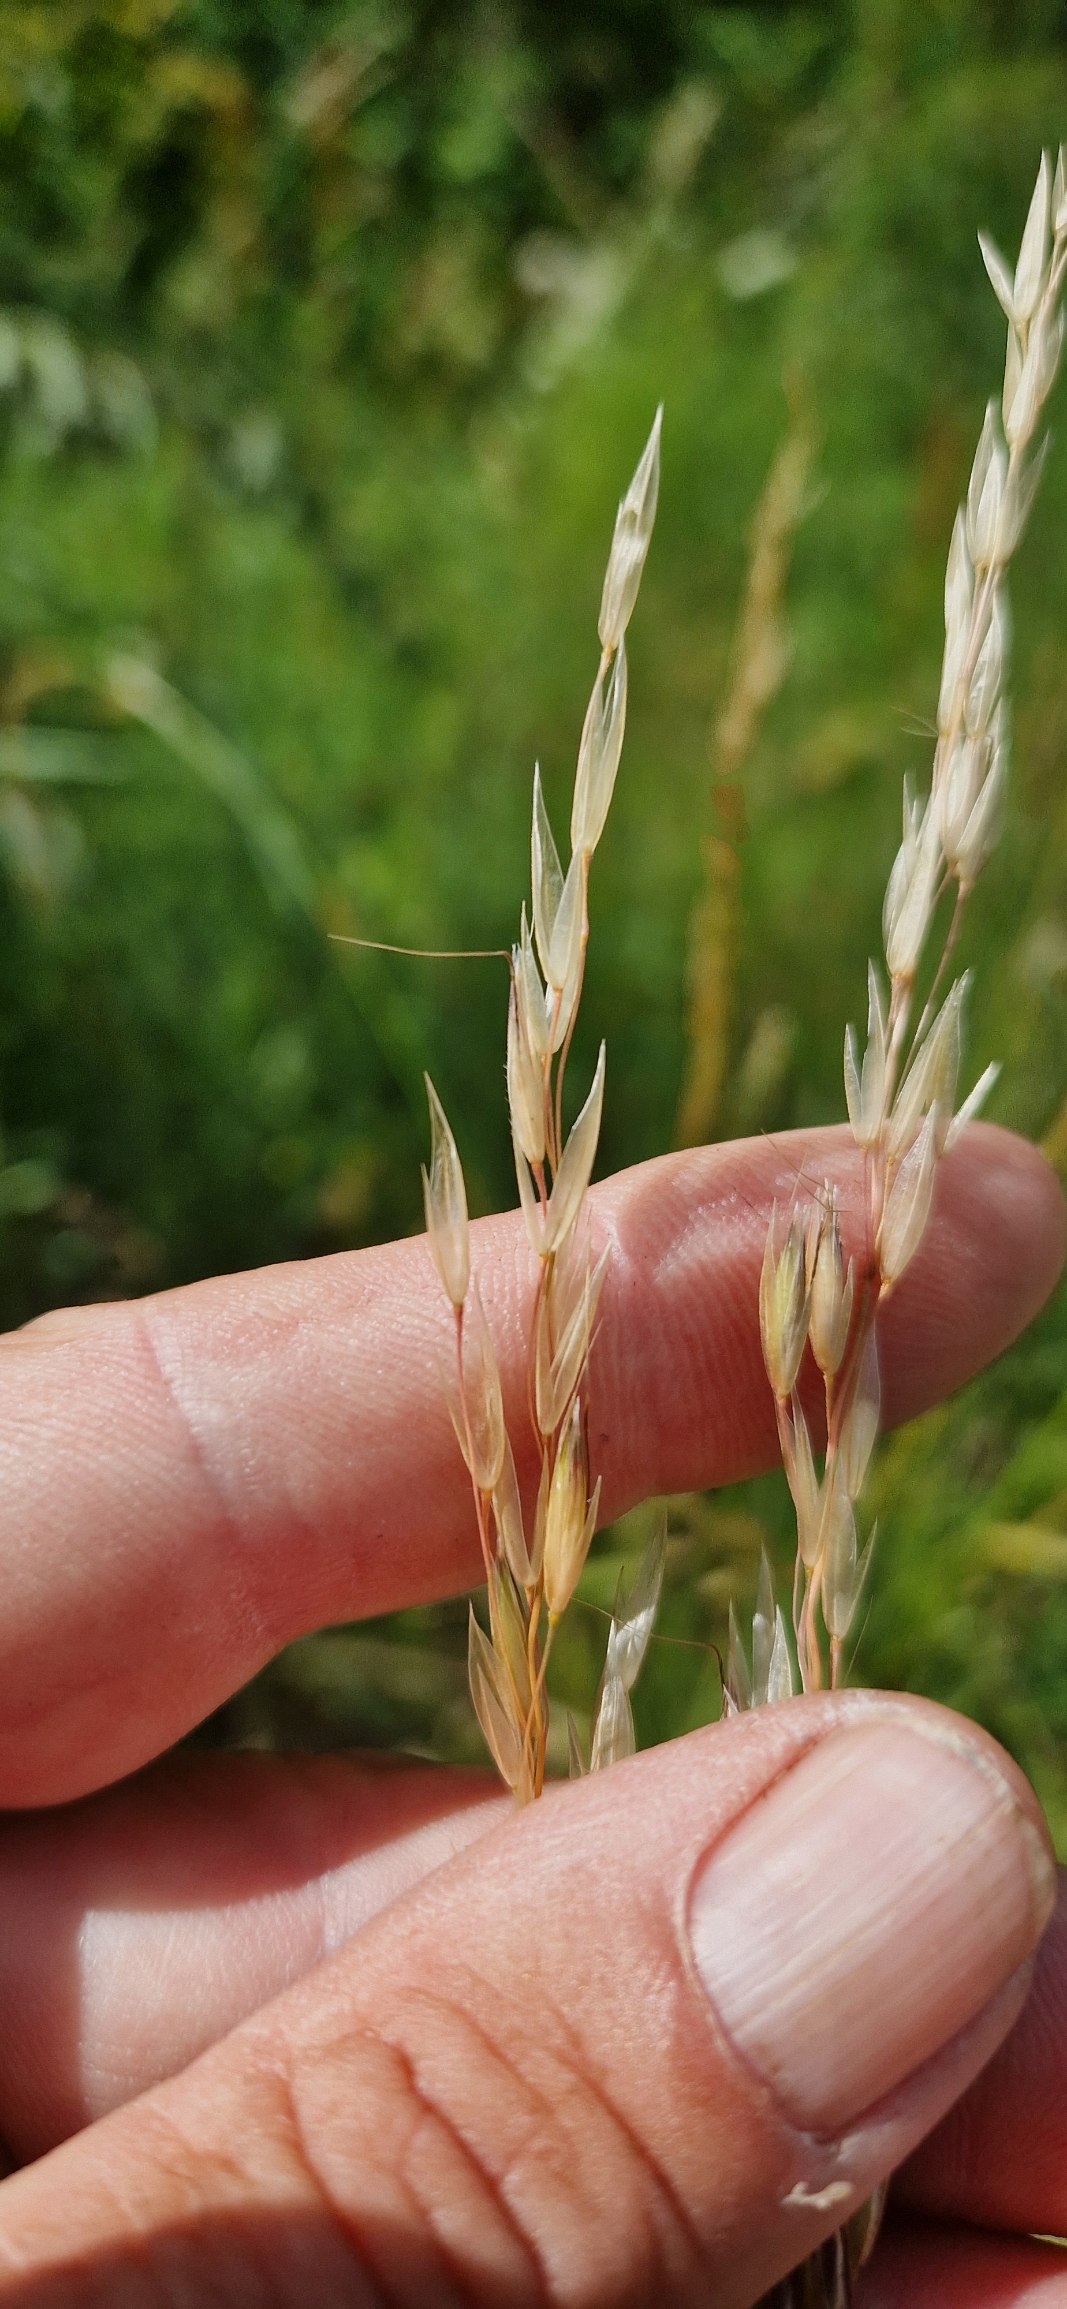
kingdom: Plantae
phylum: Tracheophyta
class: Liliopsida
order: Poales
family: Poaceae
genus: Arrhenatherum
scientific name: Arrhenatherum elatius
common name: Draphavre
